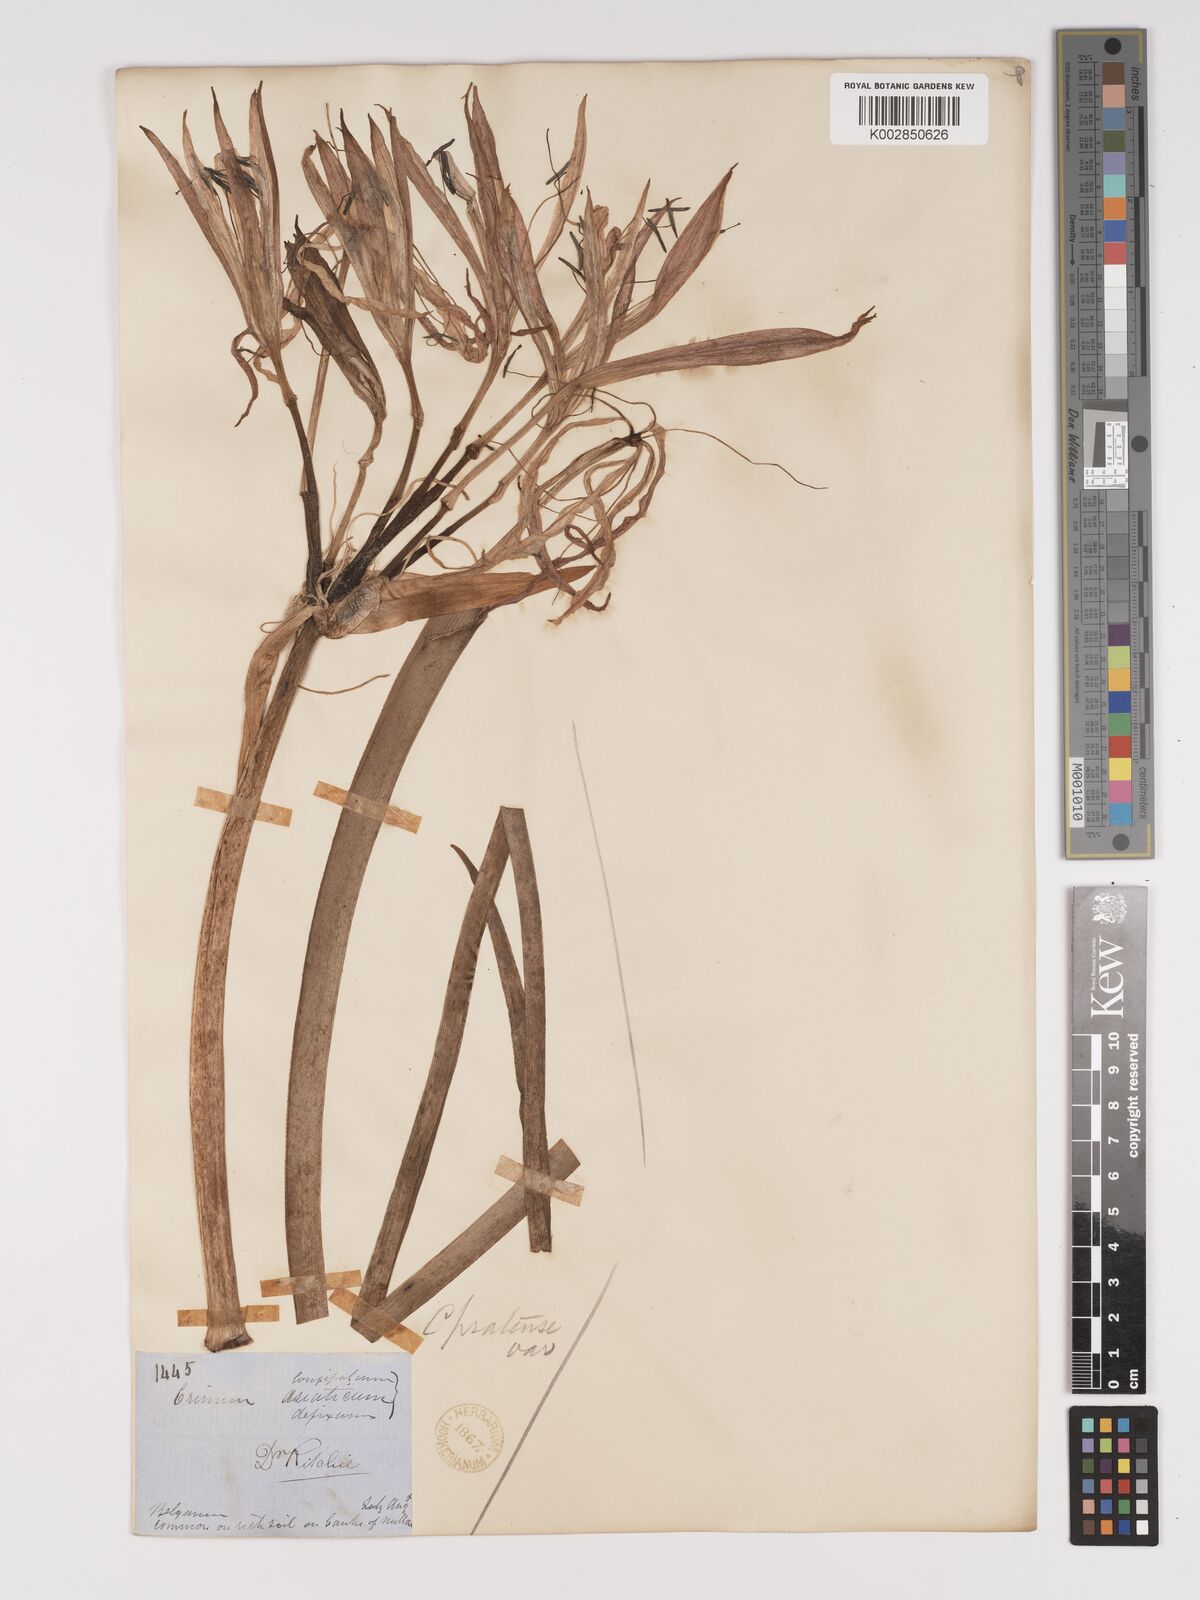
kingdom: Plantae
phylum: Tracheophyta
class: Liliopsida
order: Asparagales
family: Amaryllidaceae
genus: Crinum
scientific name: Crinum defixum
